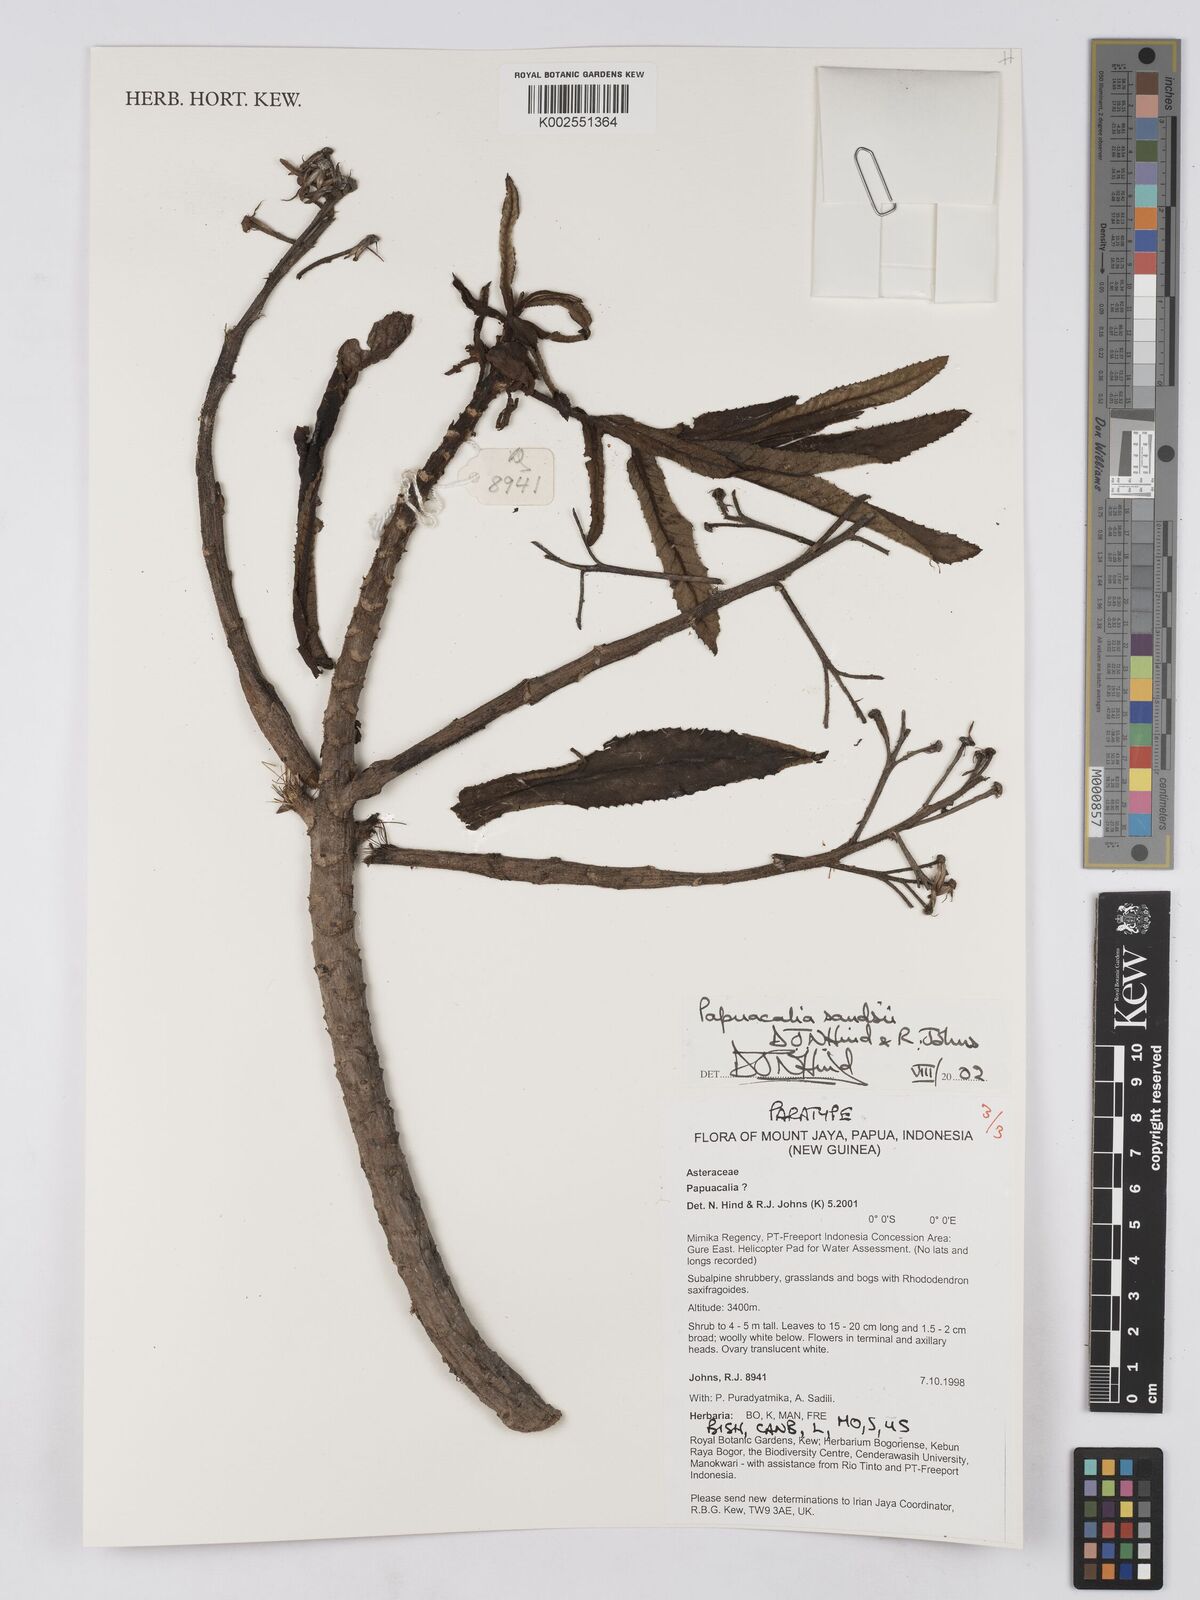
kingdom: Plantae
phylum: Tracheophyta
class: Magnoliopsida
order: Asterales
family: Asteraceae
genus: Papuacalia
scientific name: Papuacalia sandsii
